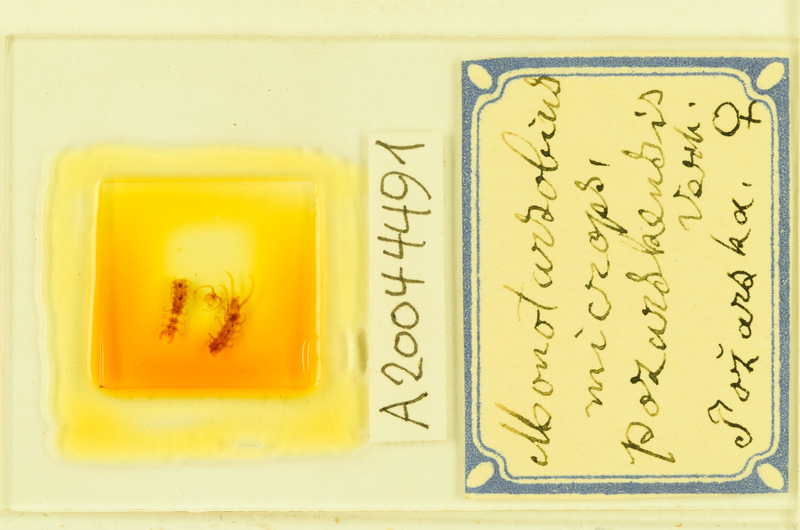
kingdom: Animalia
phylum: Arthropoda
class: Chilopoda
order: Lithobiomorpha
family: Lithobiidae
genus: Monotarsobius
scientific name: Monotarsobius microps
